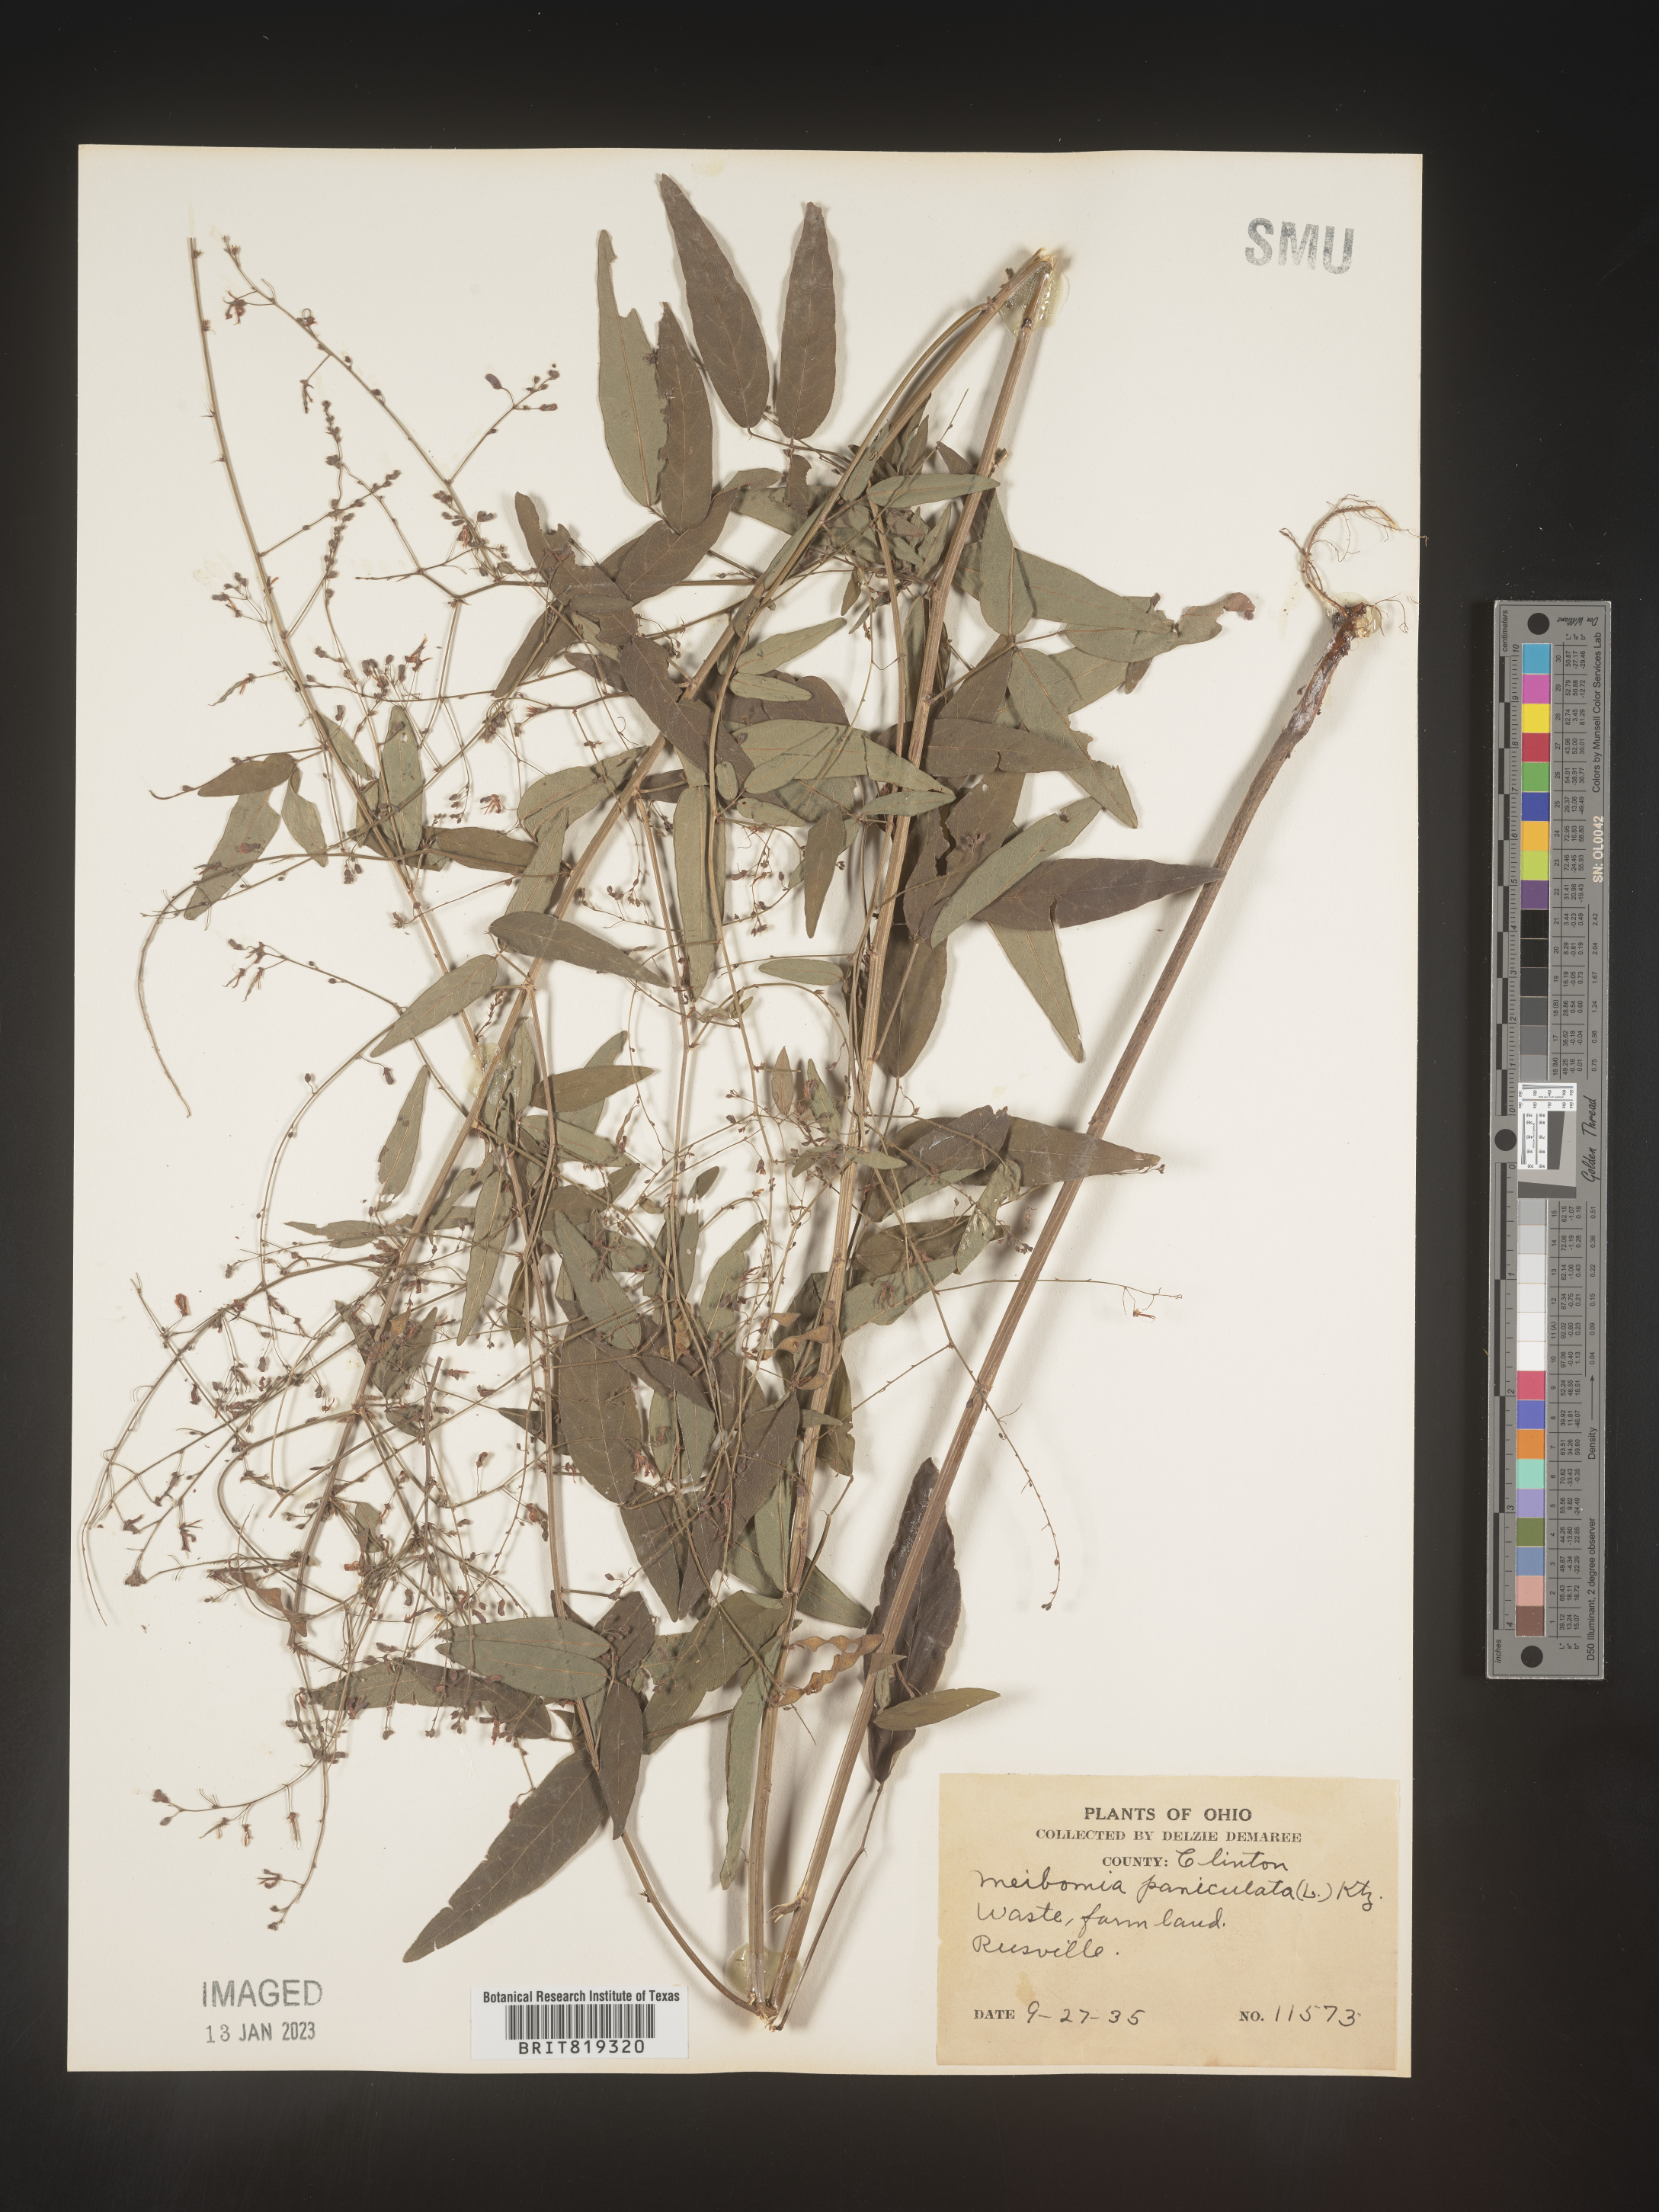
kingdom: Plantae
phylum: Tracheophyta
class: Magnoliopsida
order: Fabales
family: Fabaceae
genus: Desmodium
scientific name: Desmodium paniculatum
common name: Panicled tick-clover
